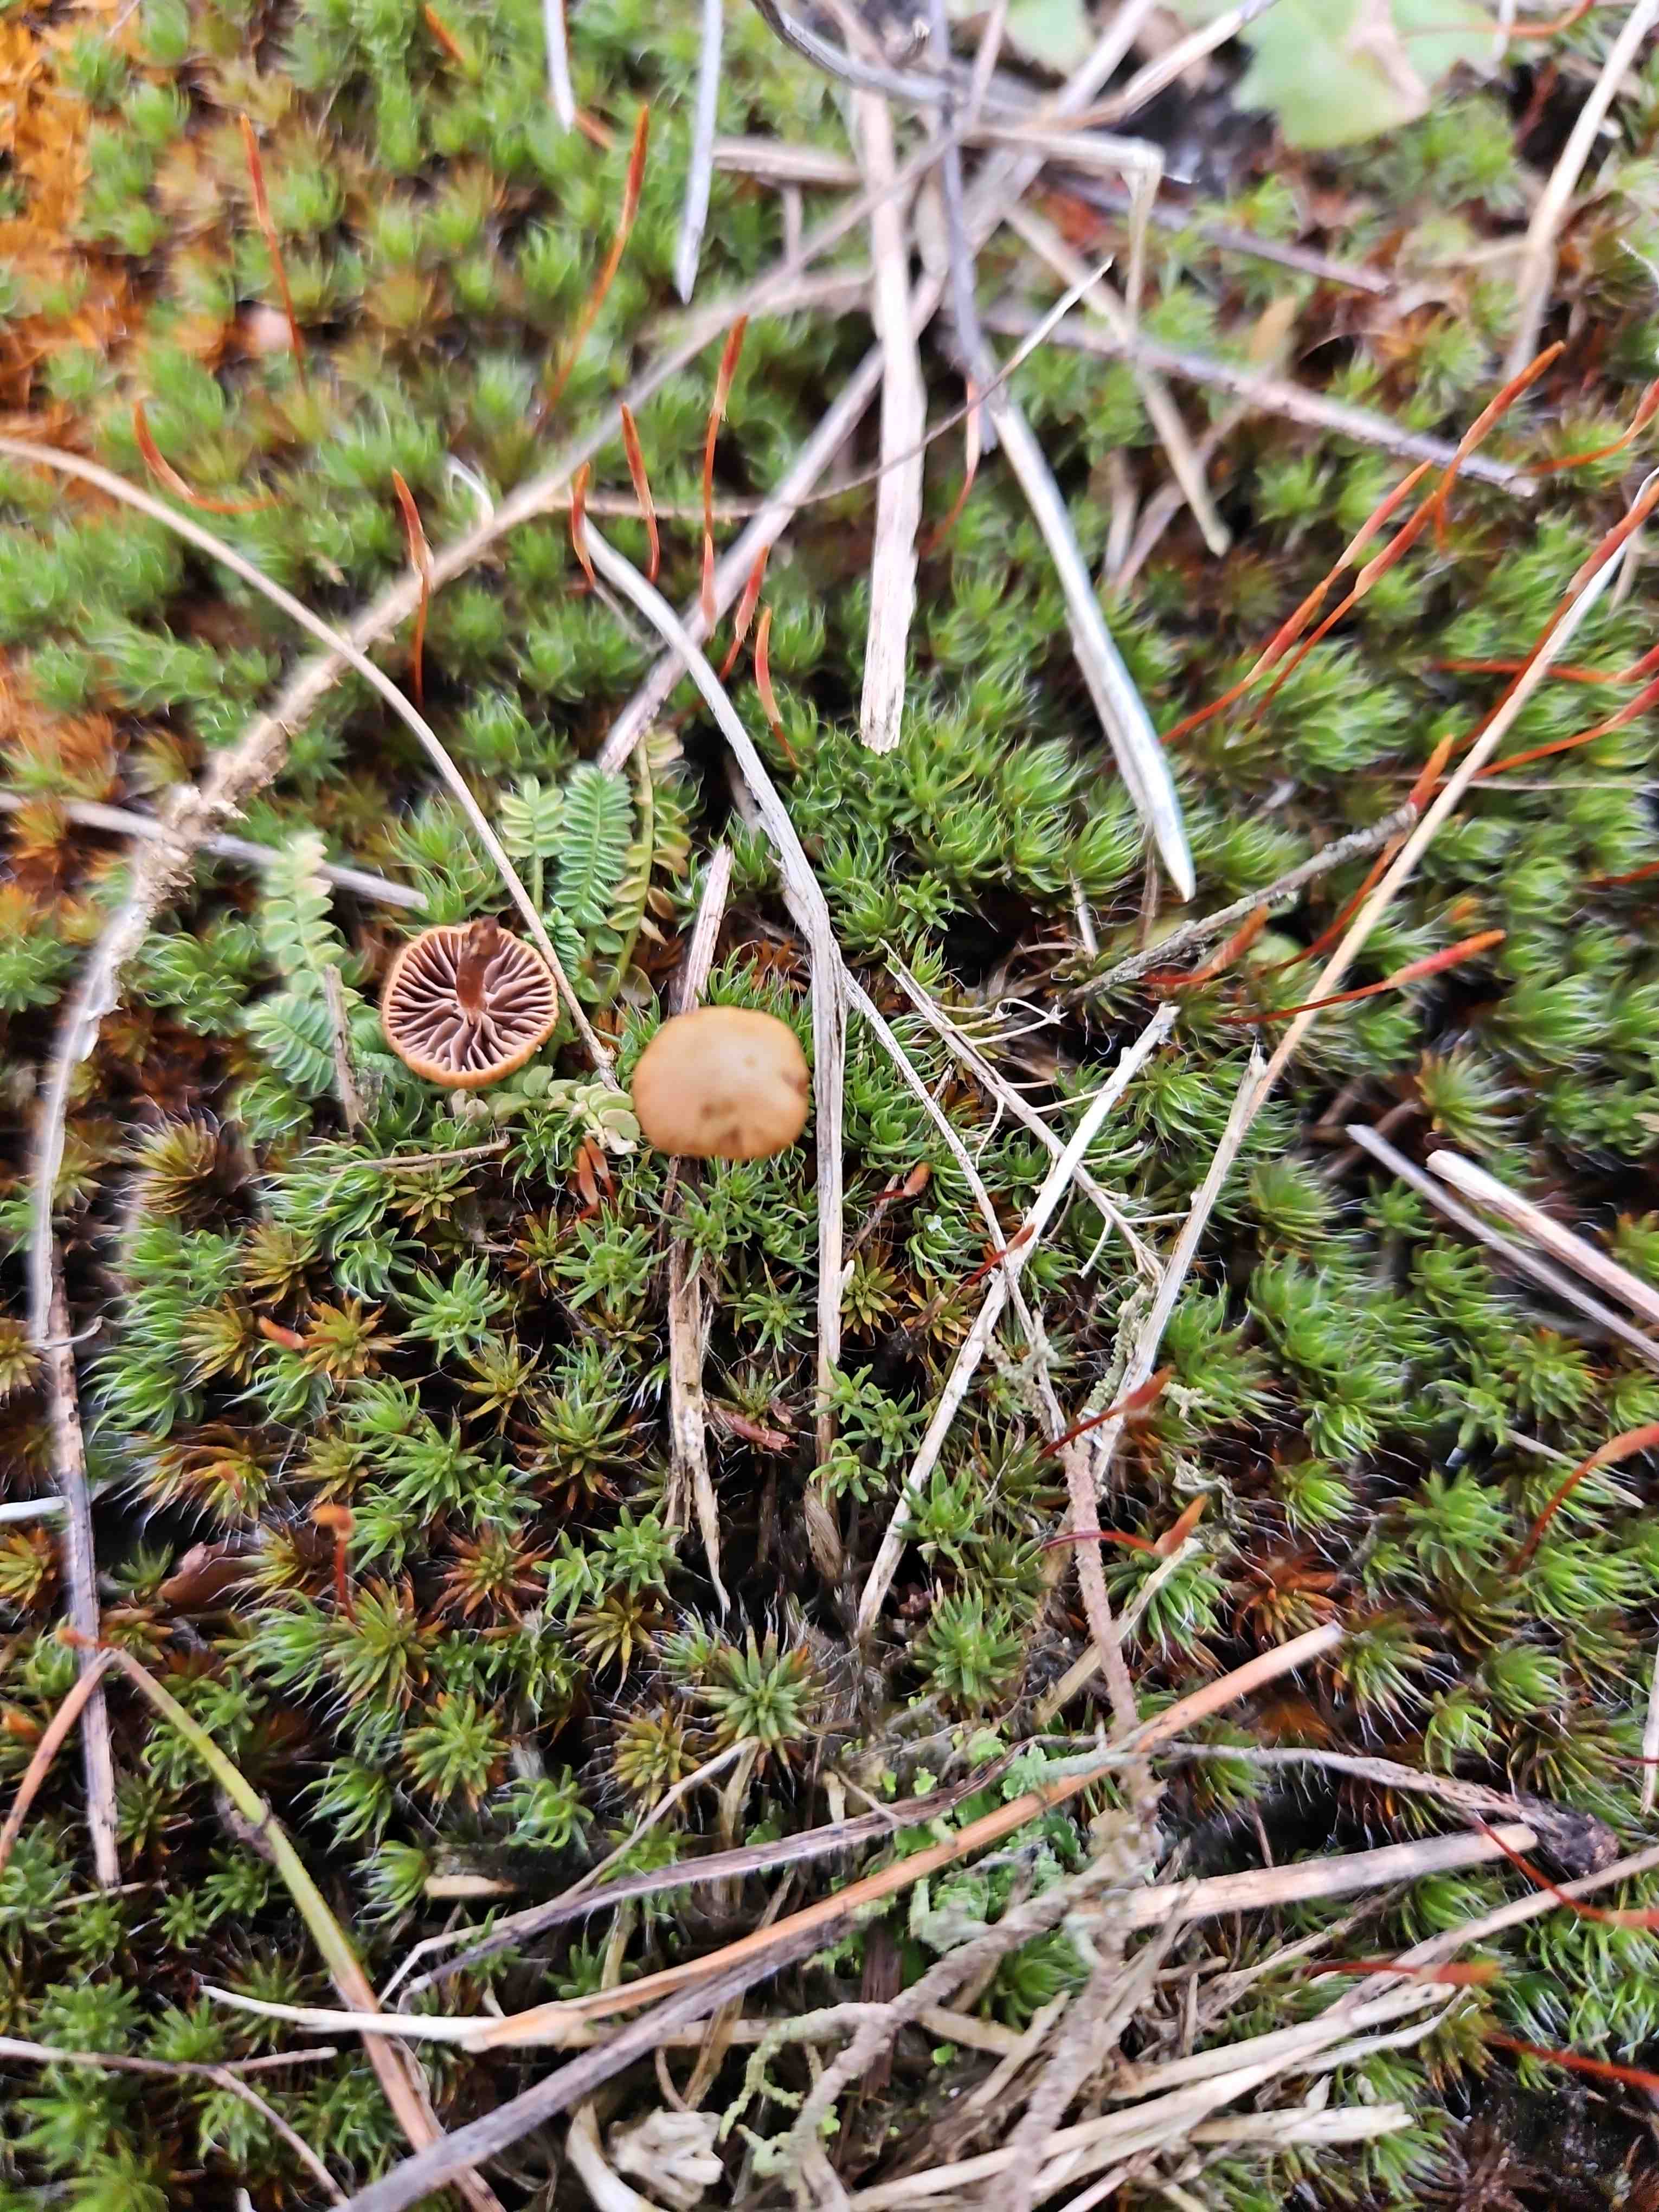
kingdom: Fungi
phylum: Basidiomycota
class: Agaricomycetes
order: Agaricales
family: Strophariaceae
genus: Deconica
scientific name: Deconica montana
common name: rødbrun stråhat
